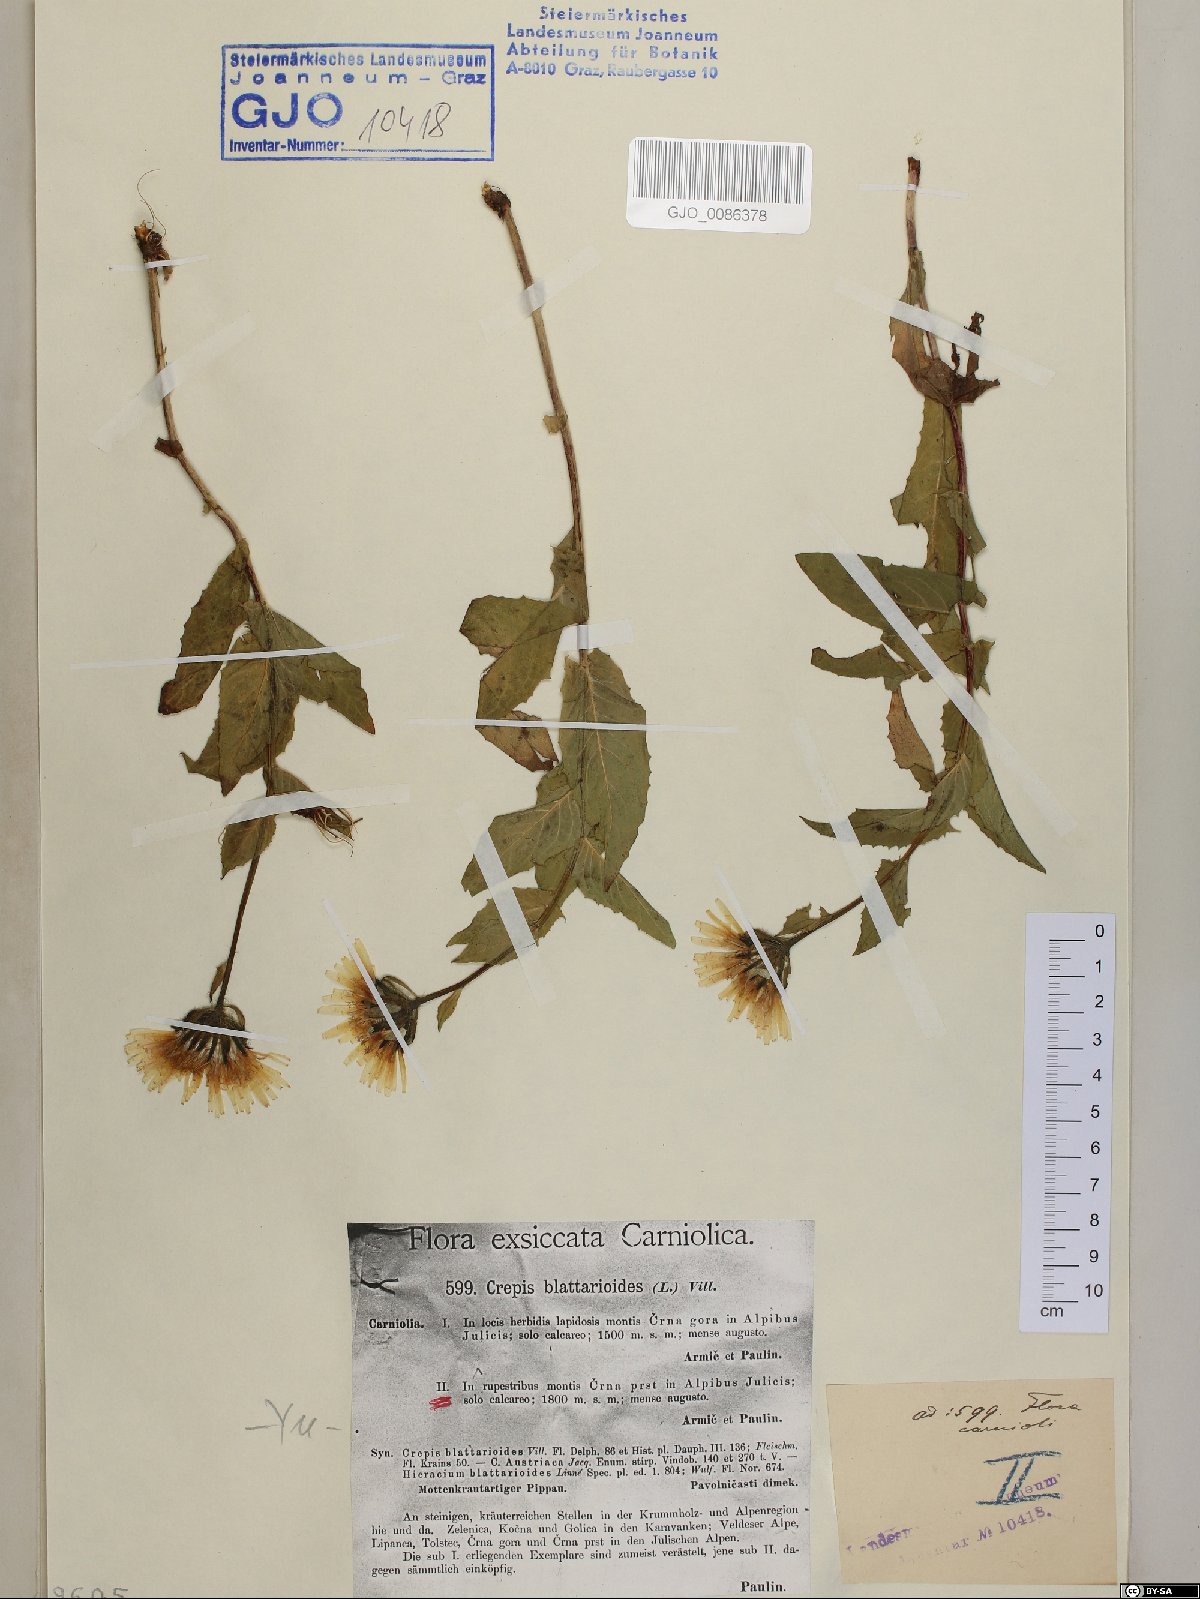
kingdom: Plantae
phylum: Tracheophyta
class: Magnoliopsida
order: Asterales
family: Asteraceae
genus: Crepis
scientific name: Crepis blattarioides
